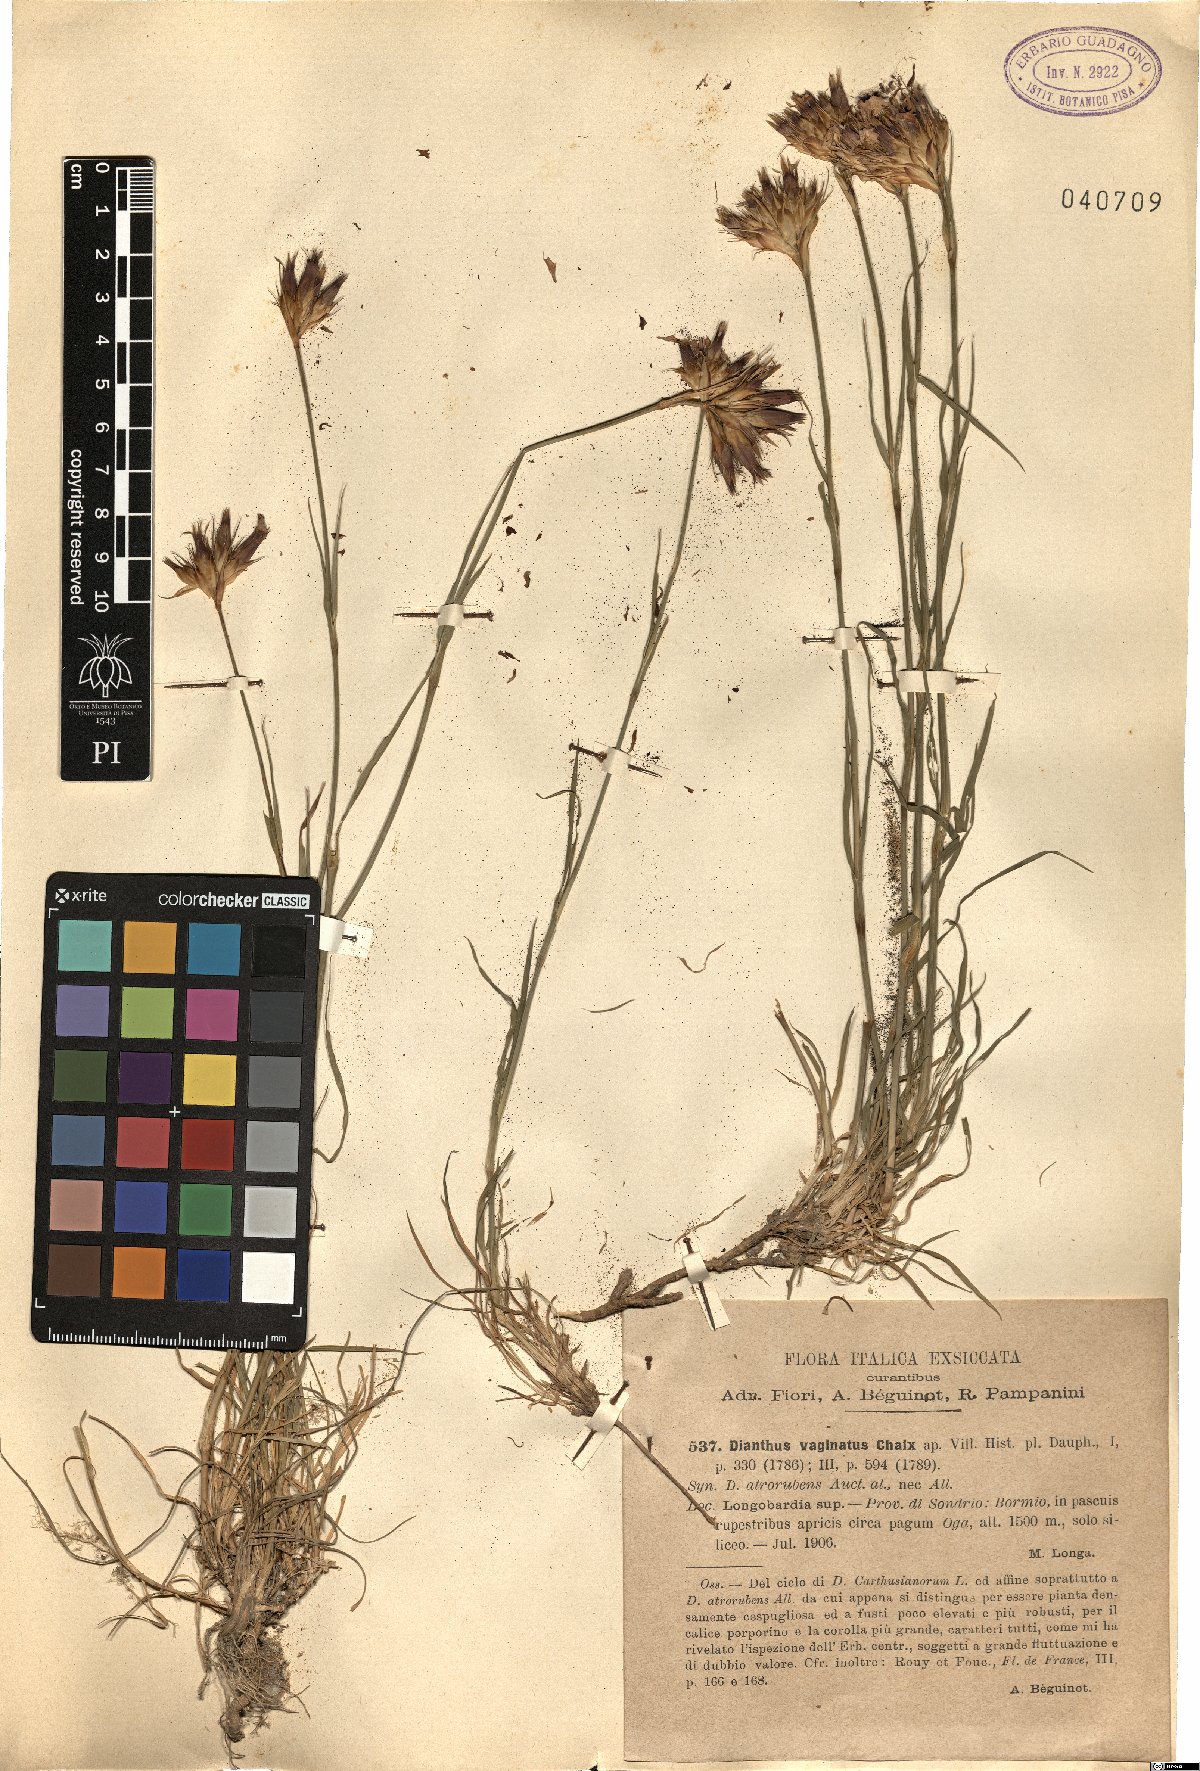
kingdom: Plantae
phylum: Tracheophyta
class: Magnoliopsida
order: Caryophyllales
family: Caryophyllaceae
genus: Dianthus
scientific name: Dianthus carthusianorum
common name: Carthusian pink
